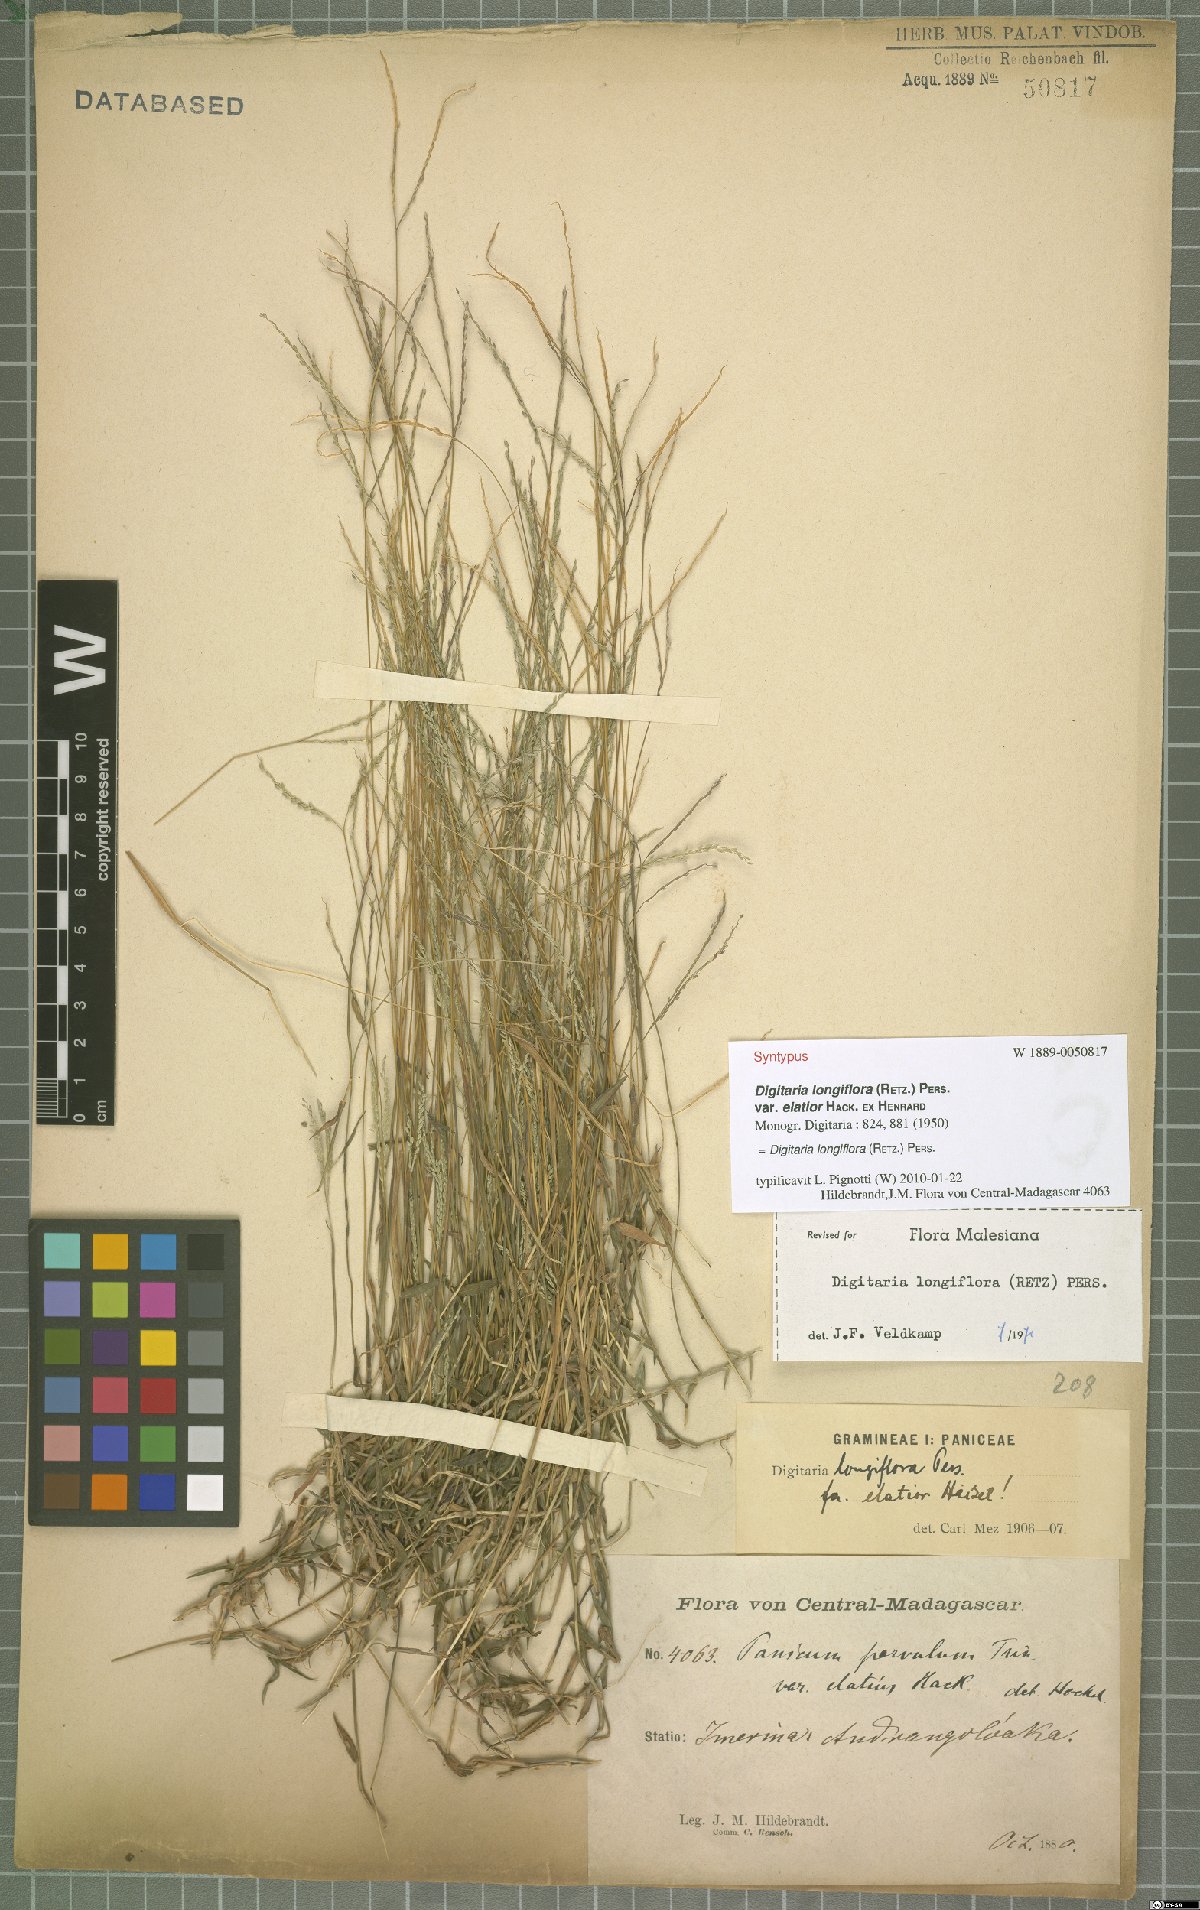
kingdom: Plantae
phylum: Tracheophyta
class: Liliopsida
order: Poales
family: Poaceae
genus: Digitaria
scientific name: Digitaria longiflora
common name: Wire crabgrass
